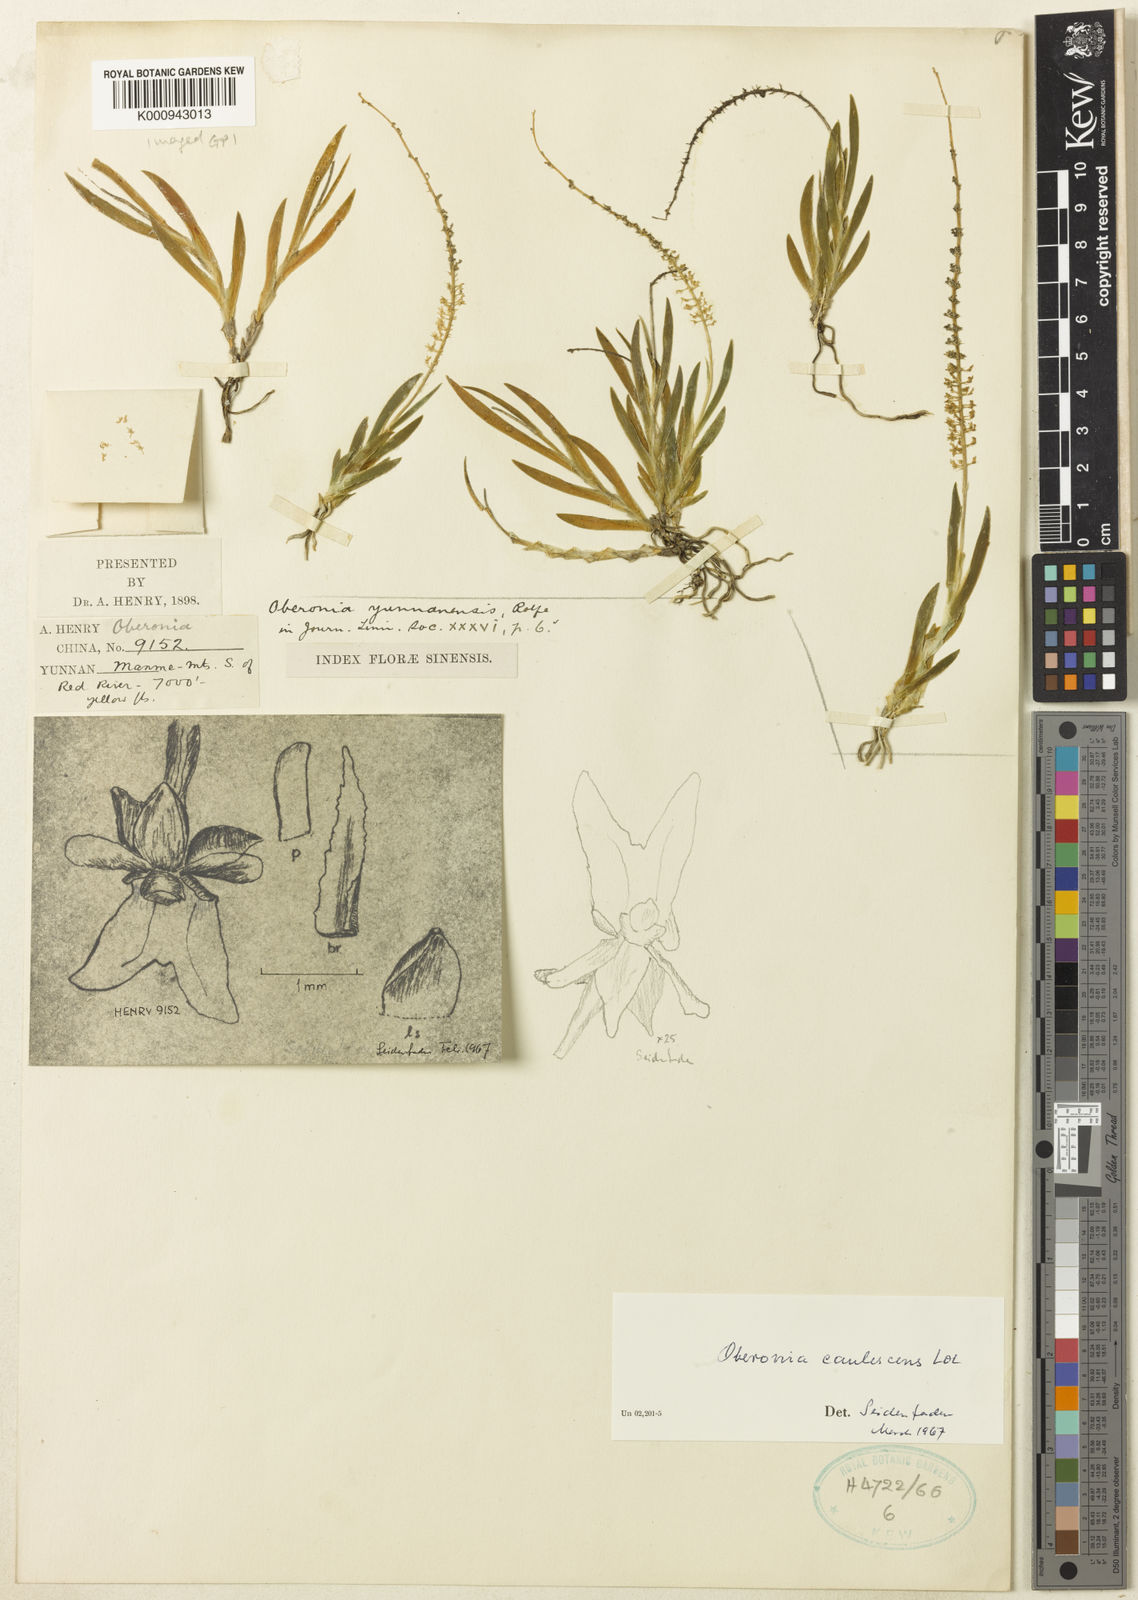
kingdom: Plantae
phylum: Tracheophyta
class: Liliopsida
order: Asparagales
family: Orchidaceae
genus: Oberonia
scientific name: Oberonia caulescens
